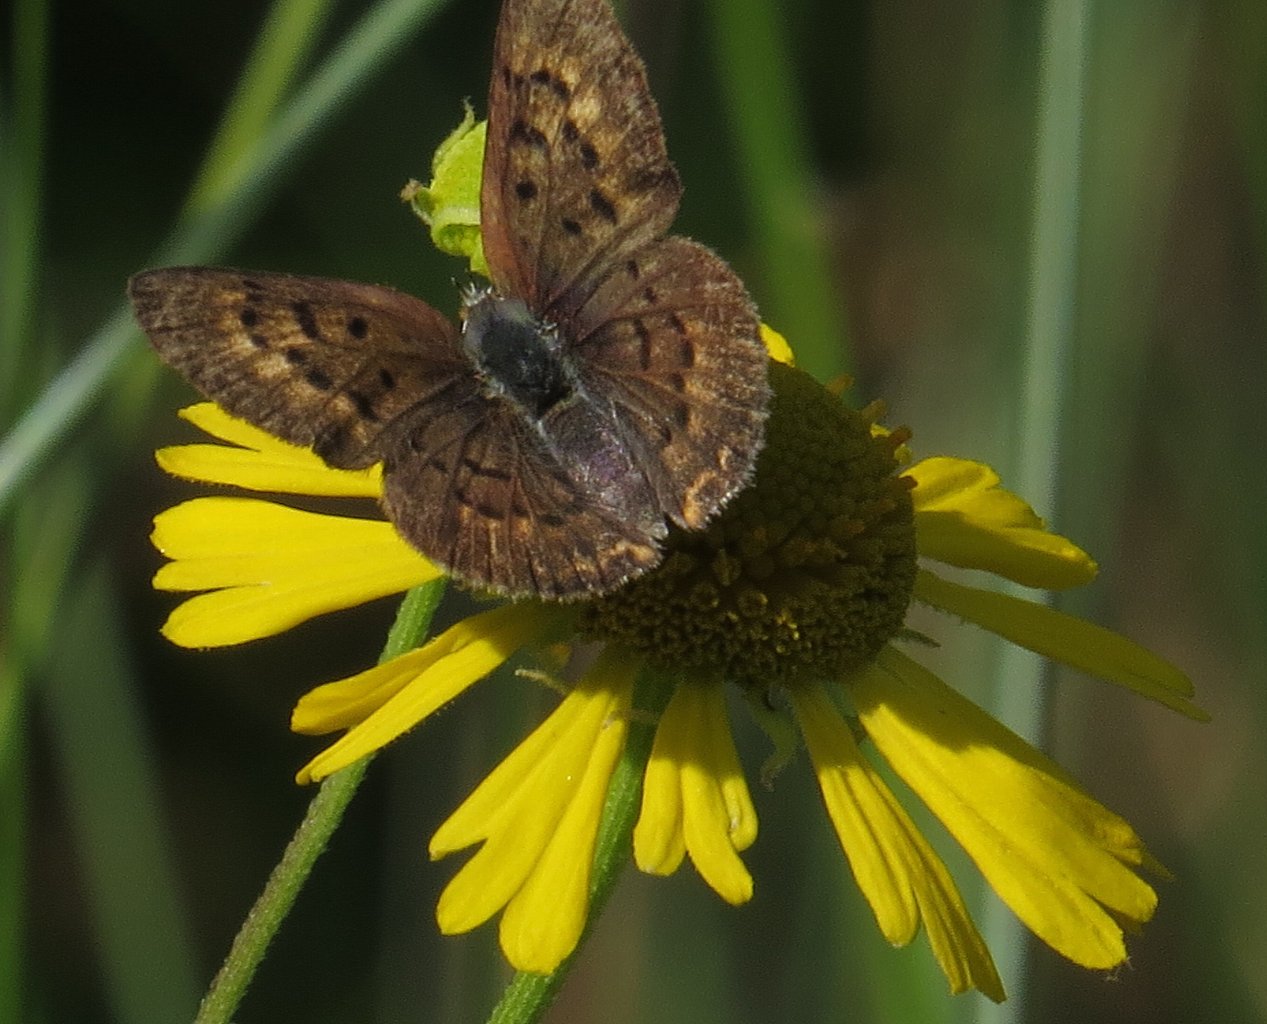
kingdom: Animalia
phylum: Arthropoda
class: Insecta
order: Lepidoptera
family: Lycaenidae
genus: Epidemia
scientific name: Epidemia dorcas
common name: Dorcas Copper
